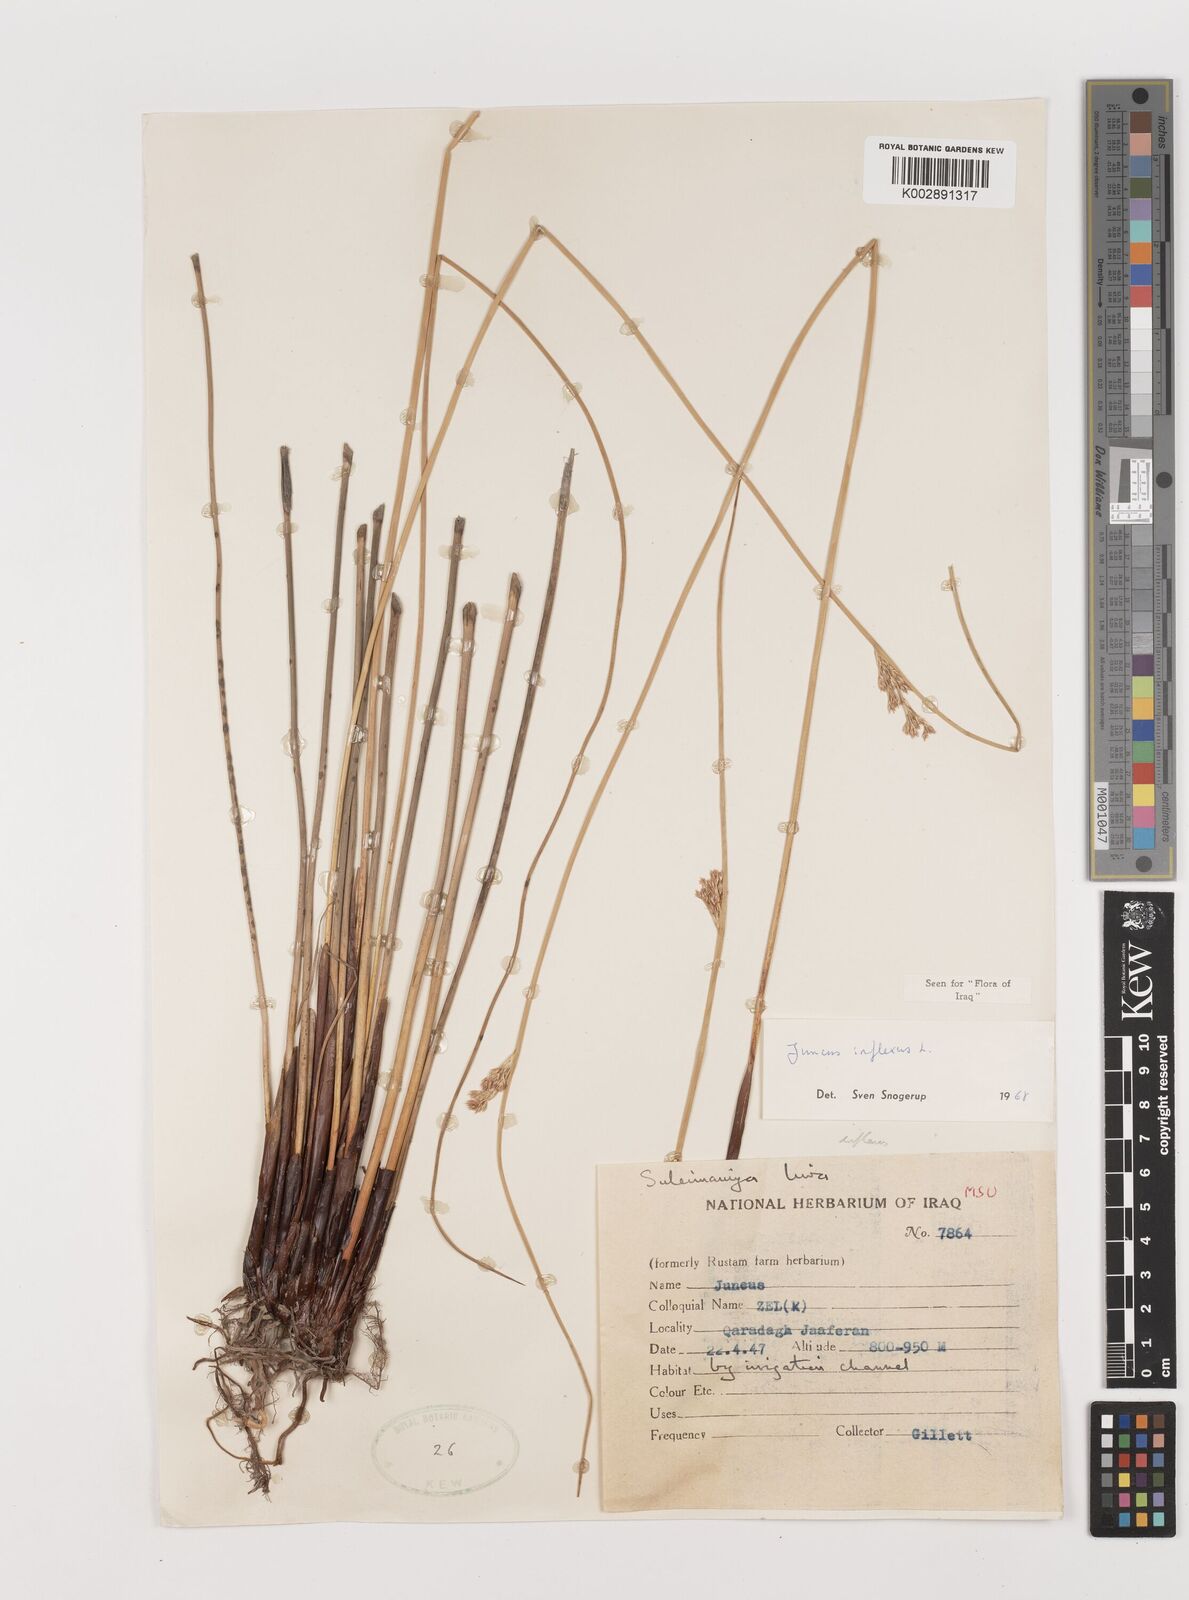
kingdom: Plantae
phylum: Tracheophyta
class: Liliopsida
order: Poales
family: Juncaceae
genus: Juncus
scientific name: Juncus inflexus
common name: Hard rush
